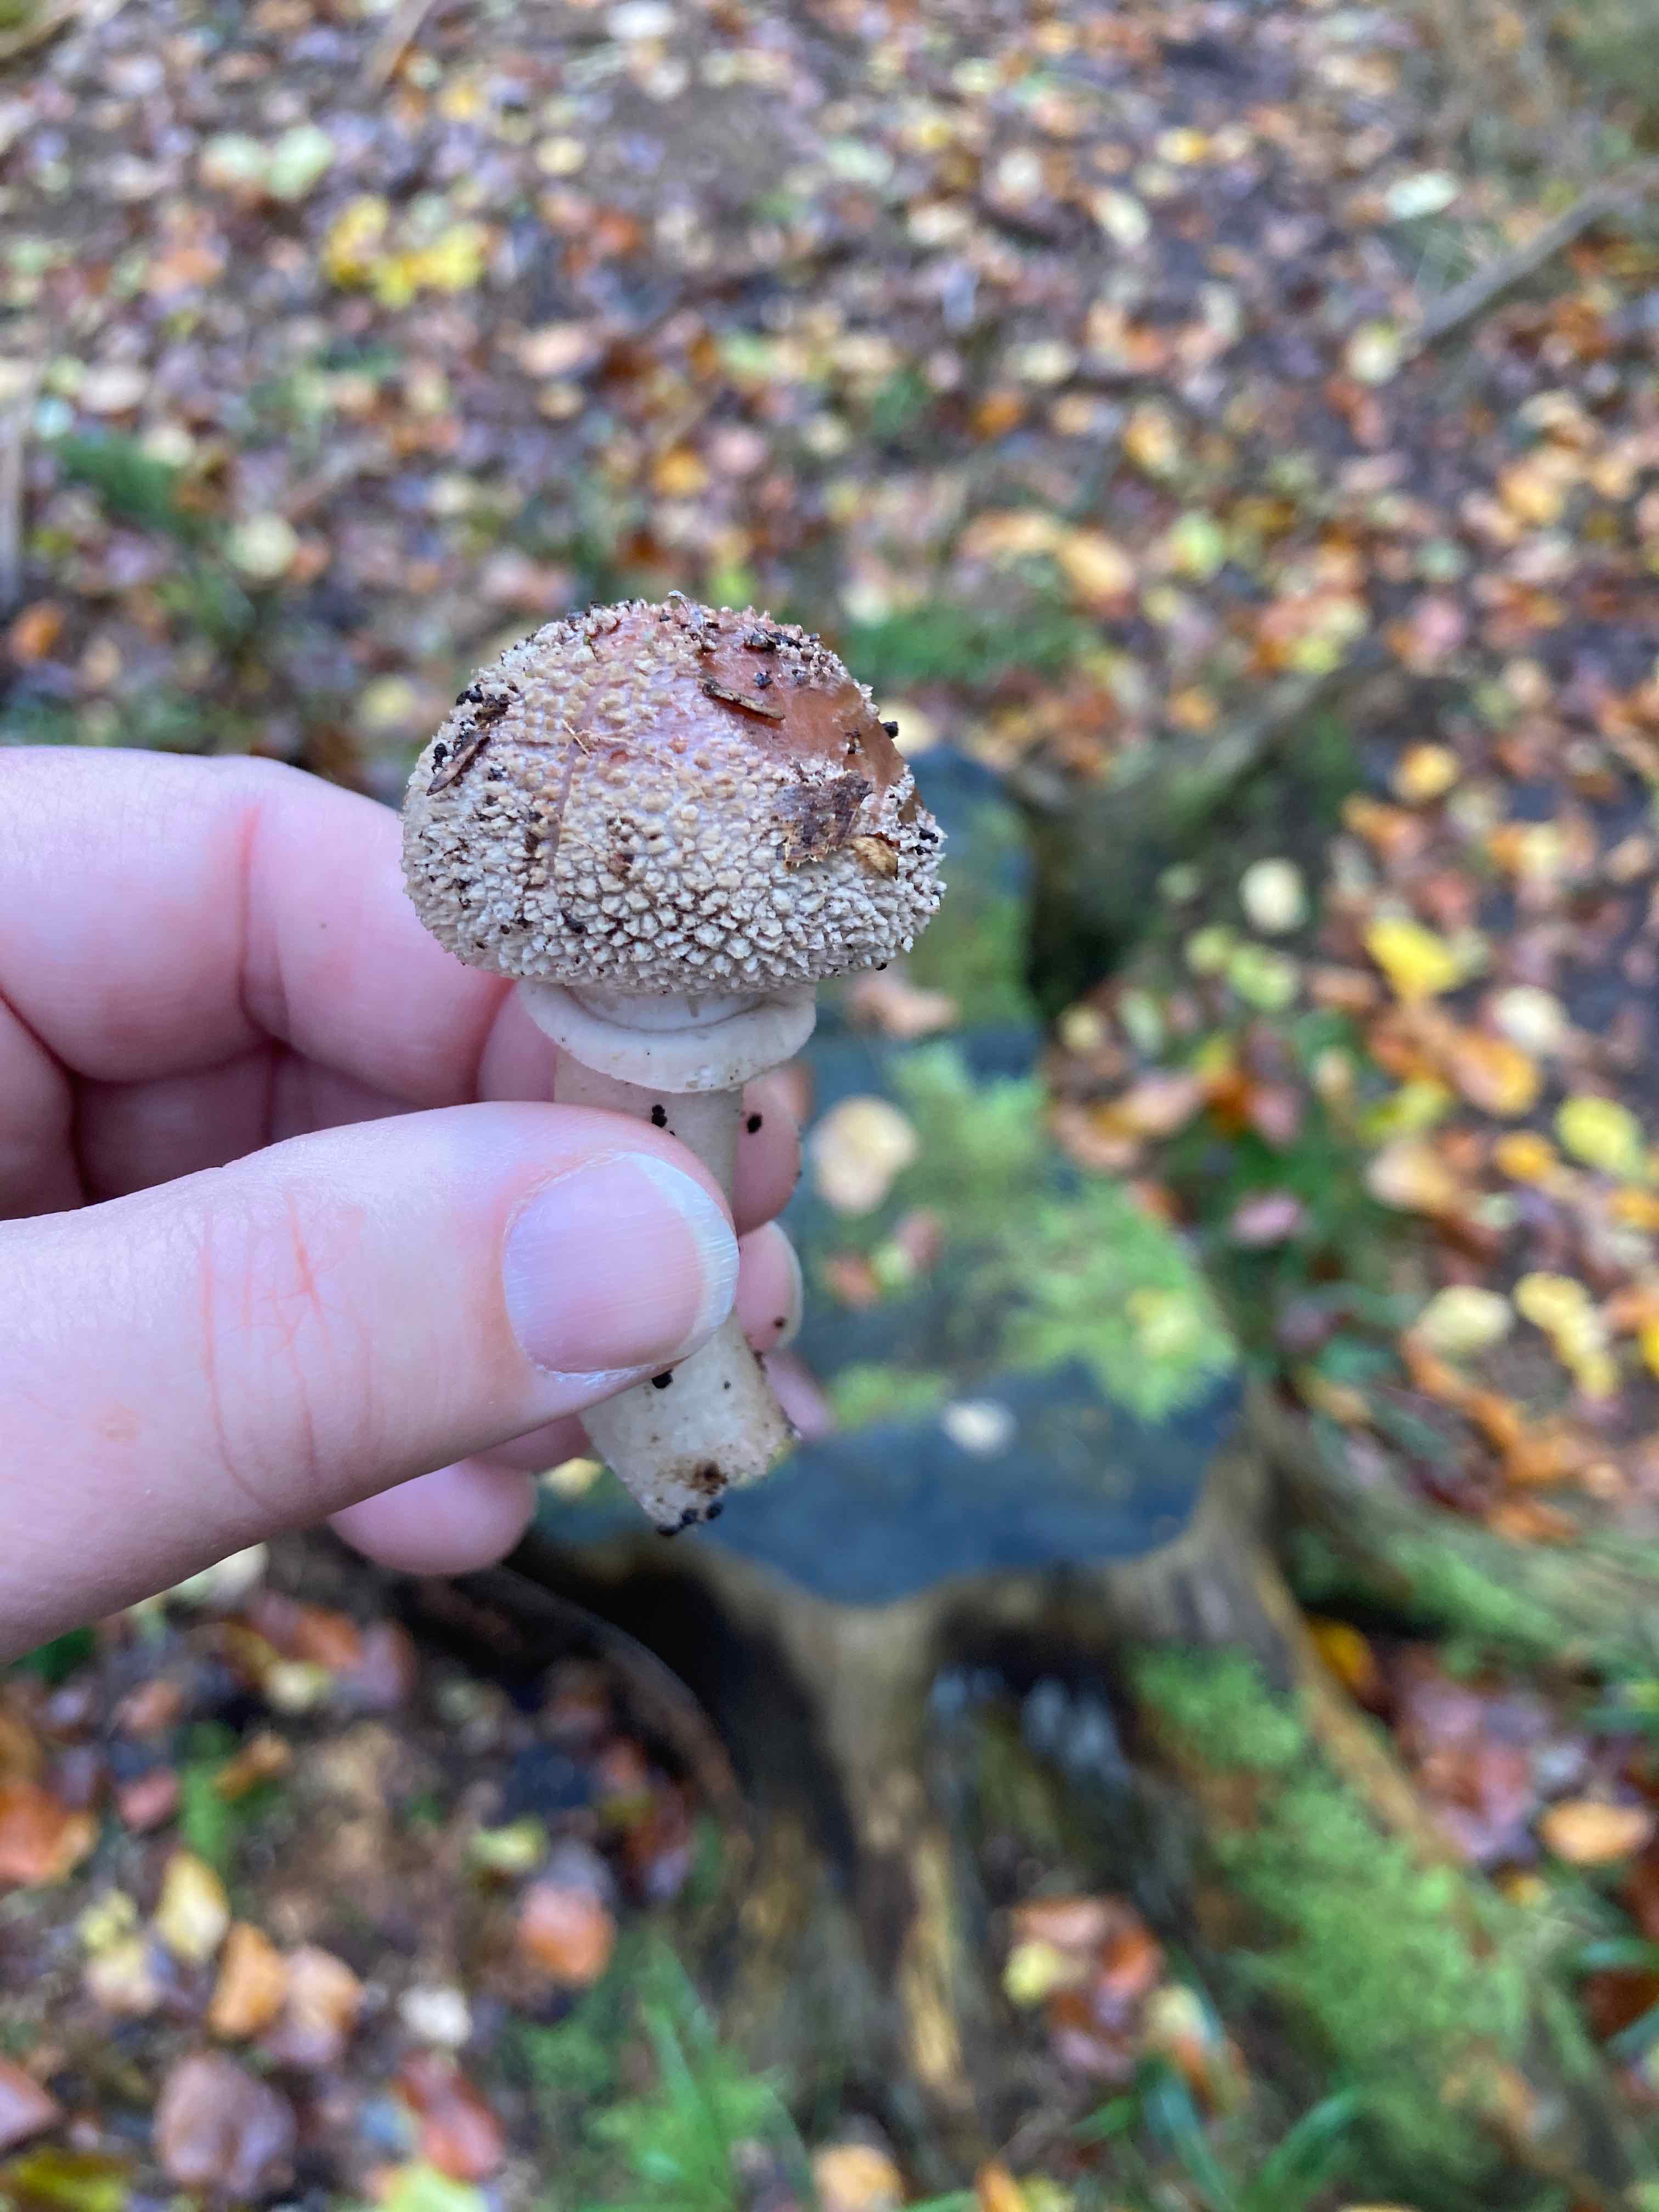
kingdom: Fungi
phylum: Basidiomycota
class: Agaricomycetes
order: Agaricales
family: Amanitaceae
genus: Amanita
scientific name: Amanita rubescens
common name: rødmende fluesvamp
